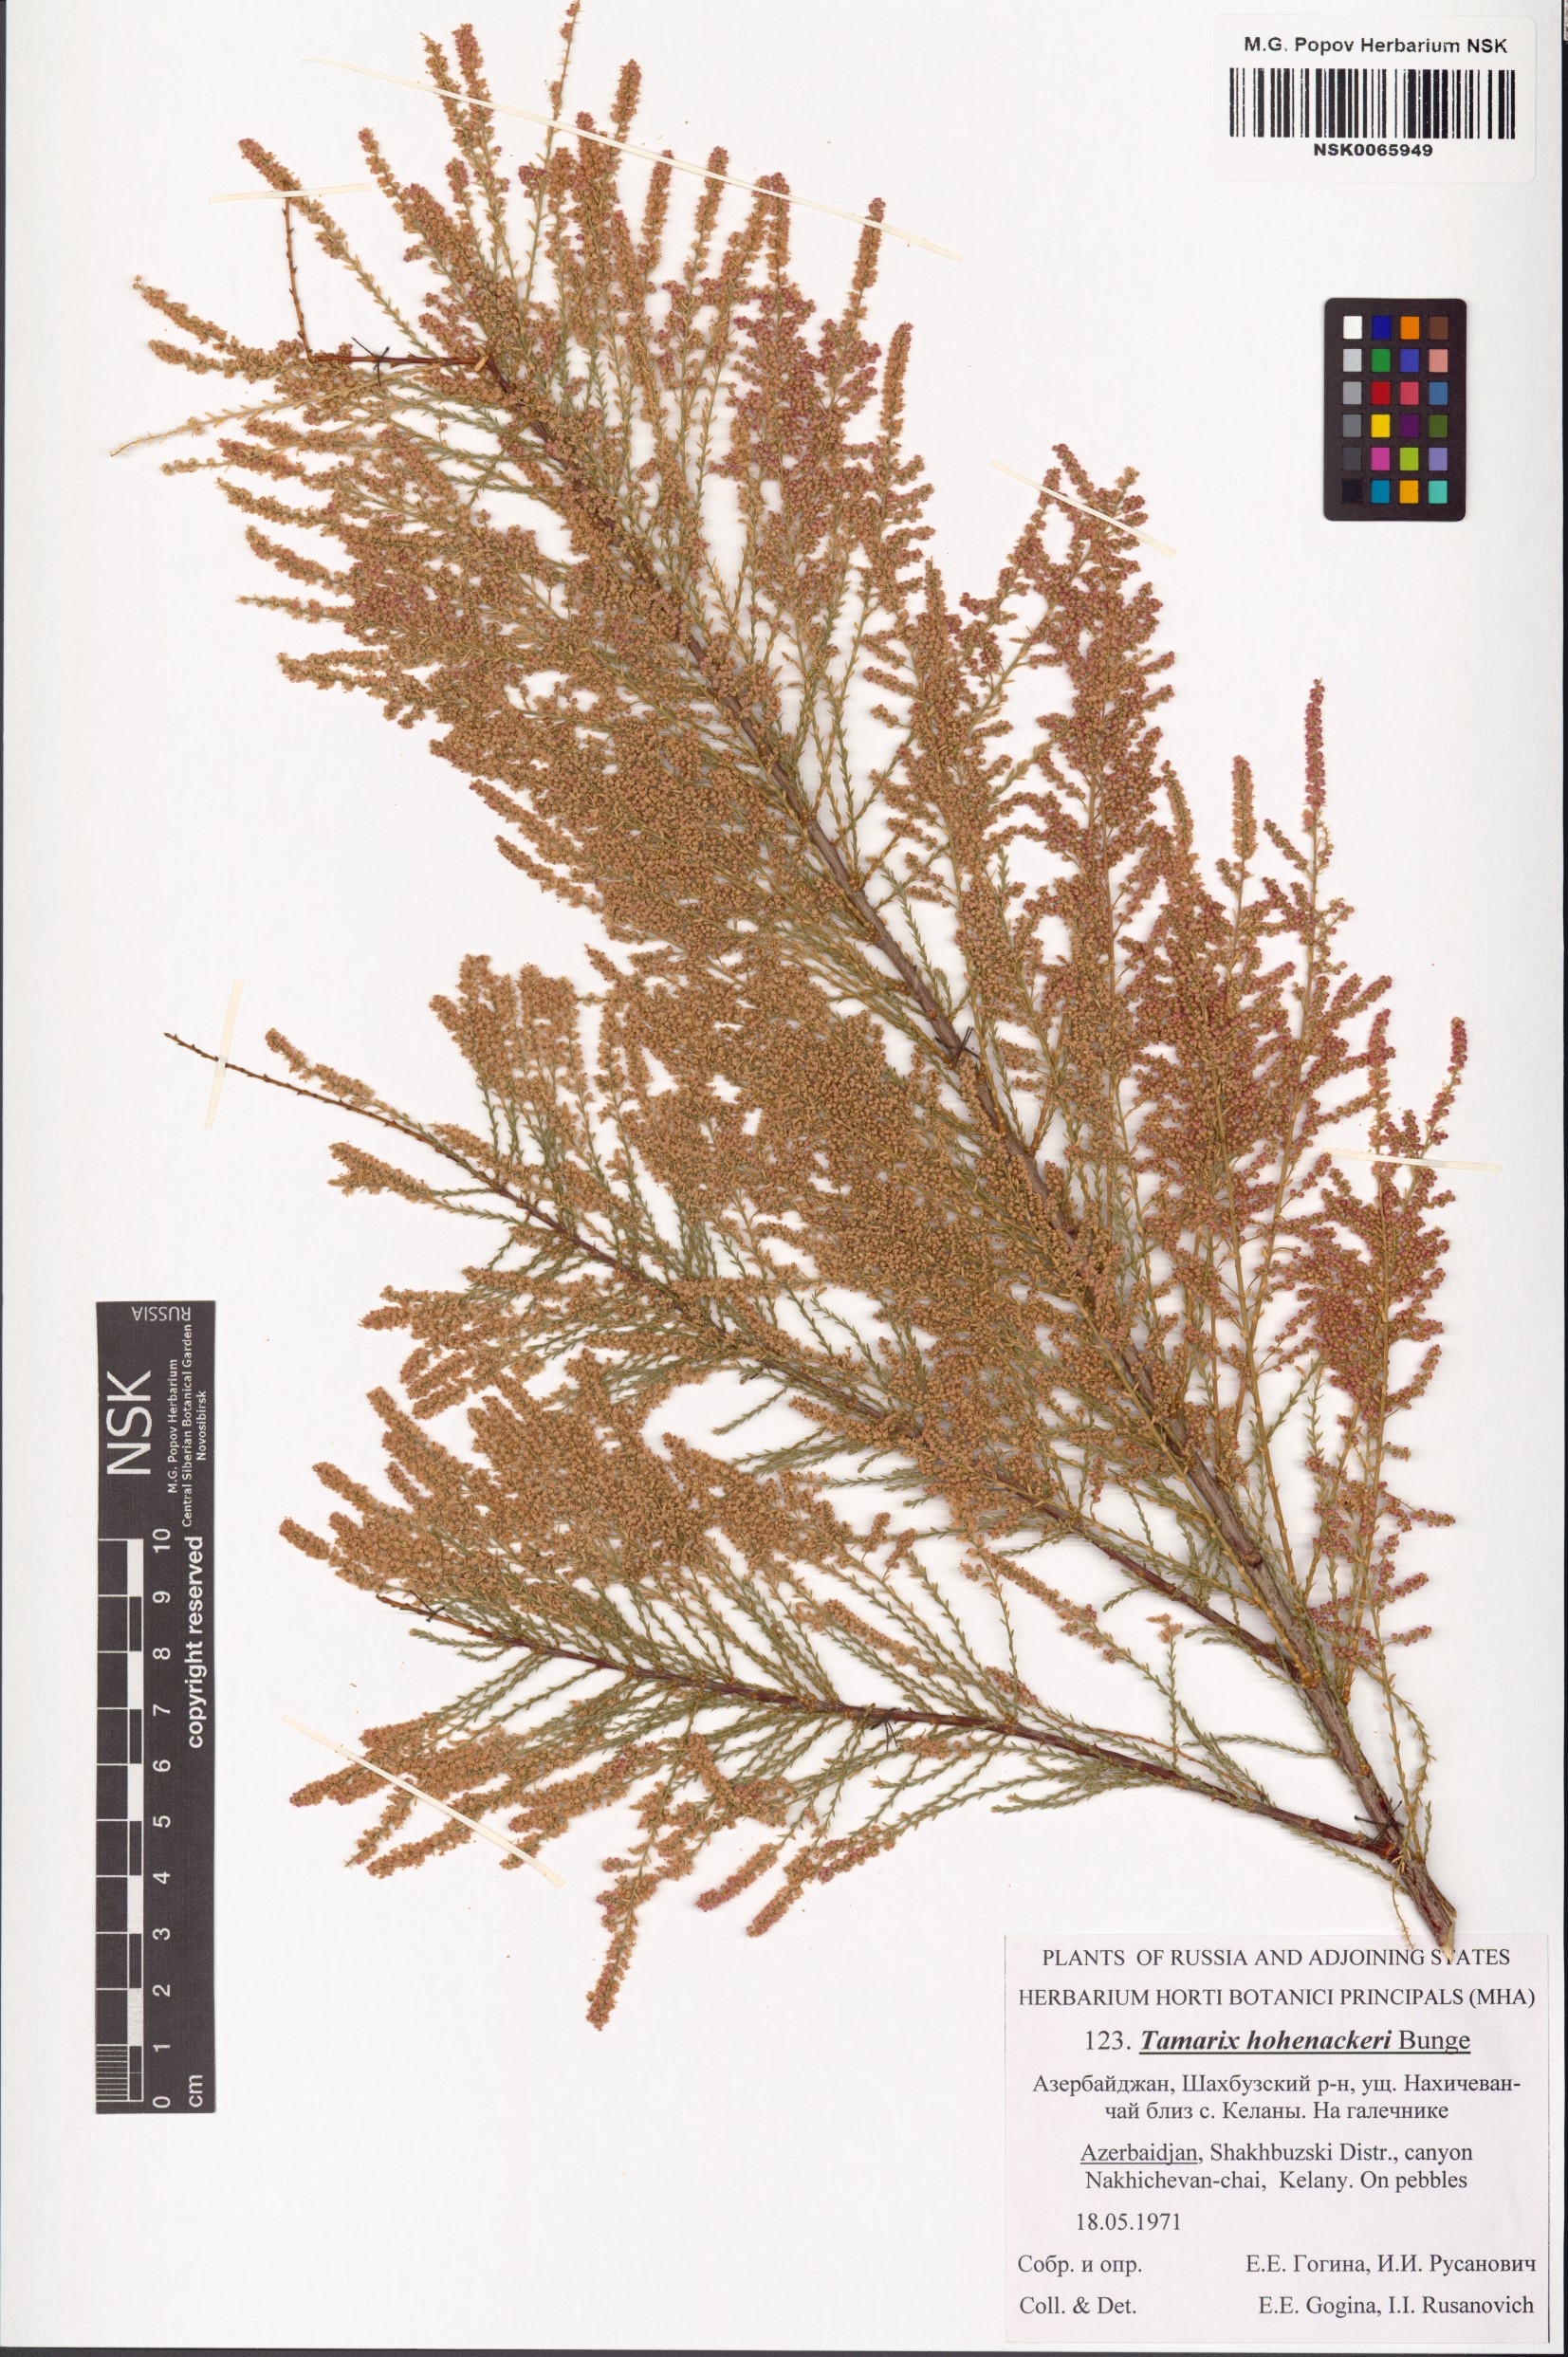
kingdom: Plantae
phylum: Tracheophyta
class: Magnoliopsida
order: Caryophyllales
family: Tamaricaceae
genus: Tamarix
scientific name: Tamarix hohenackeri
